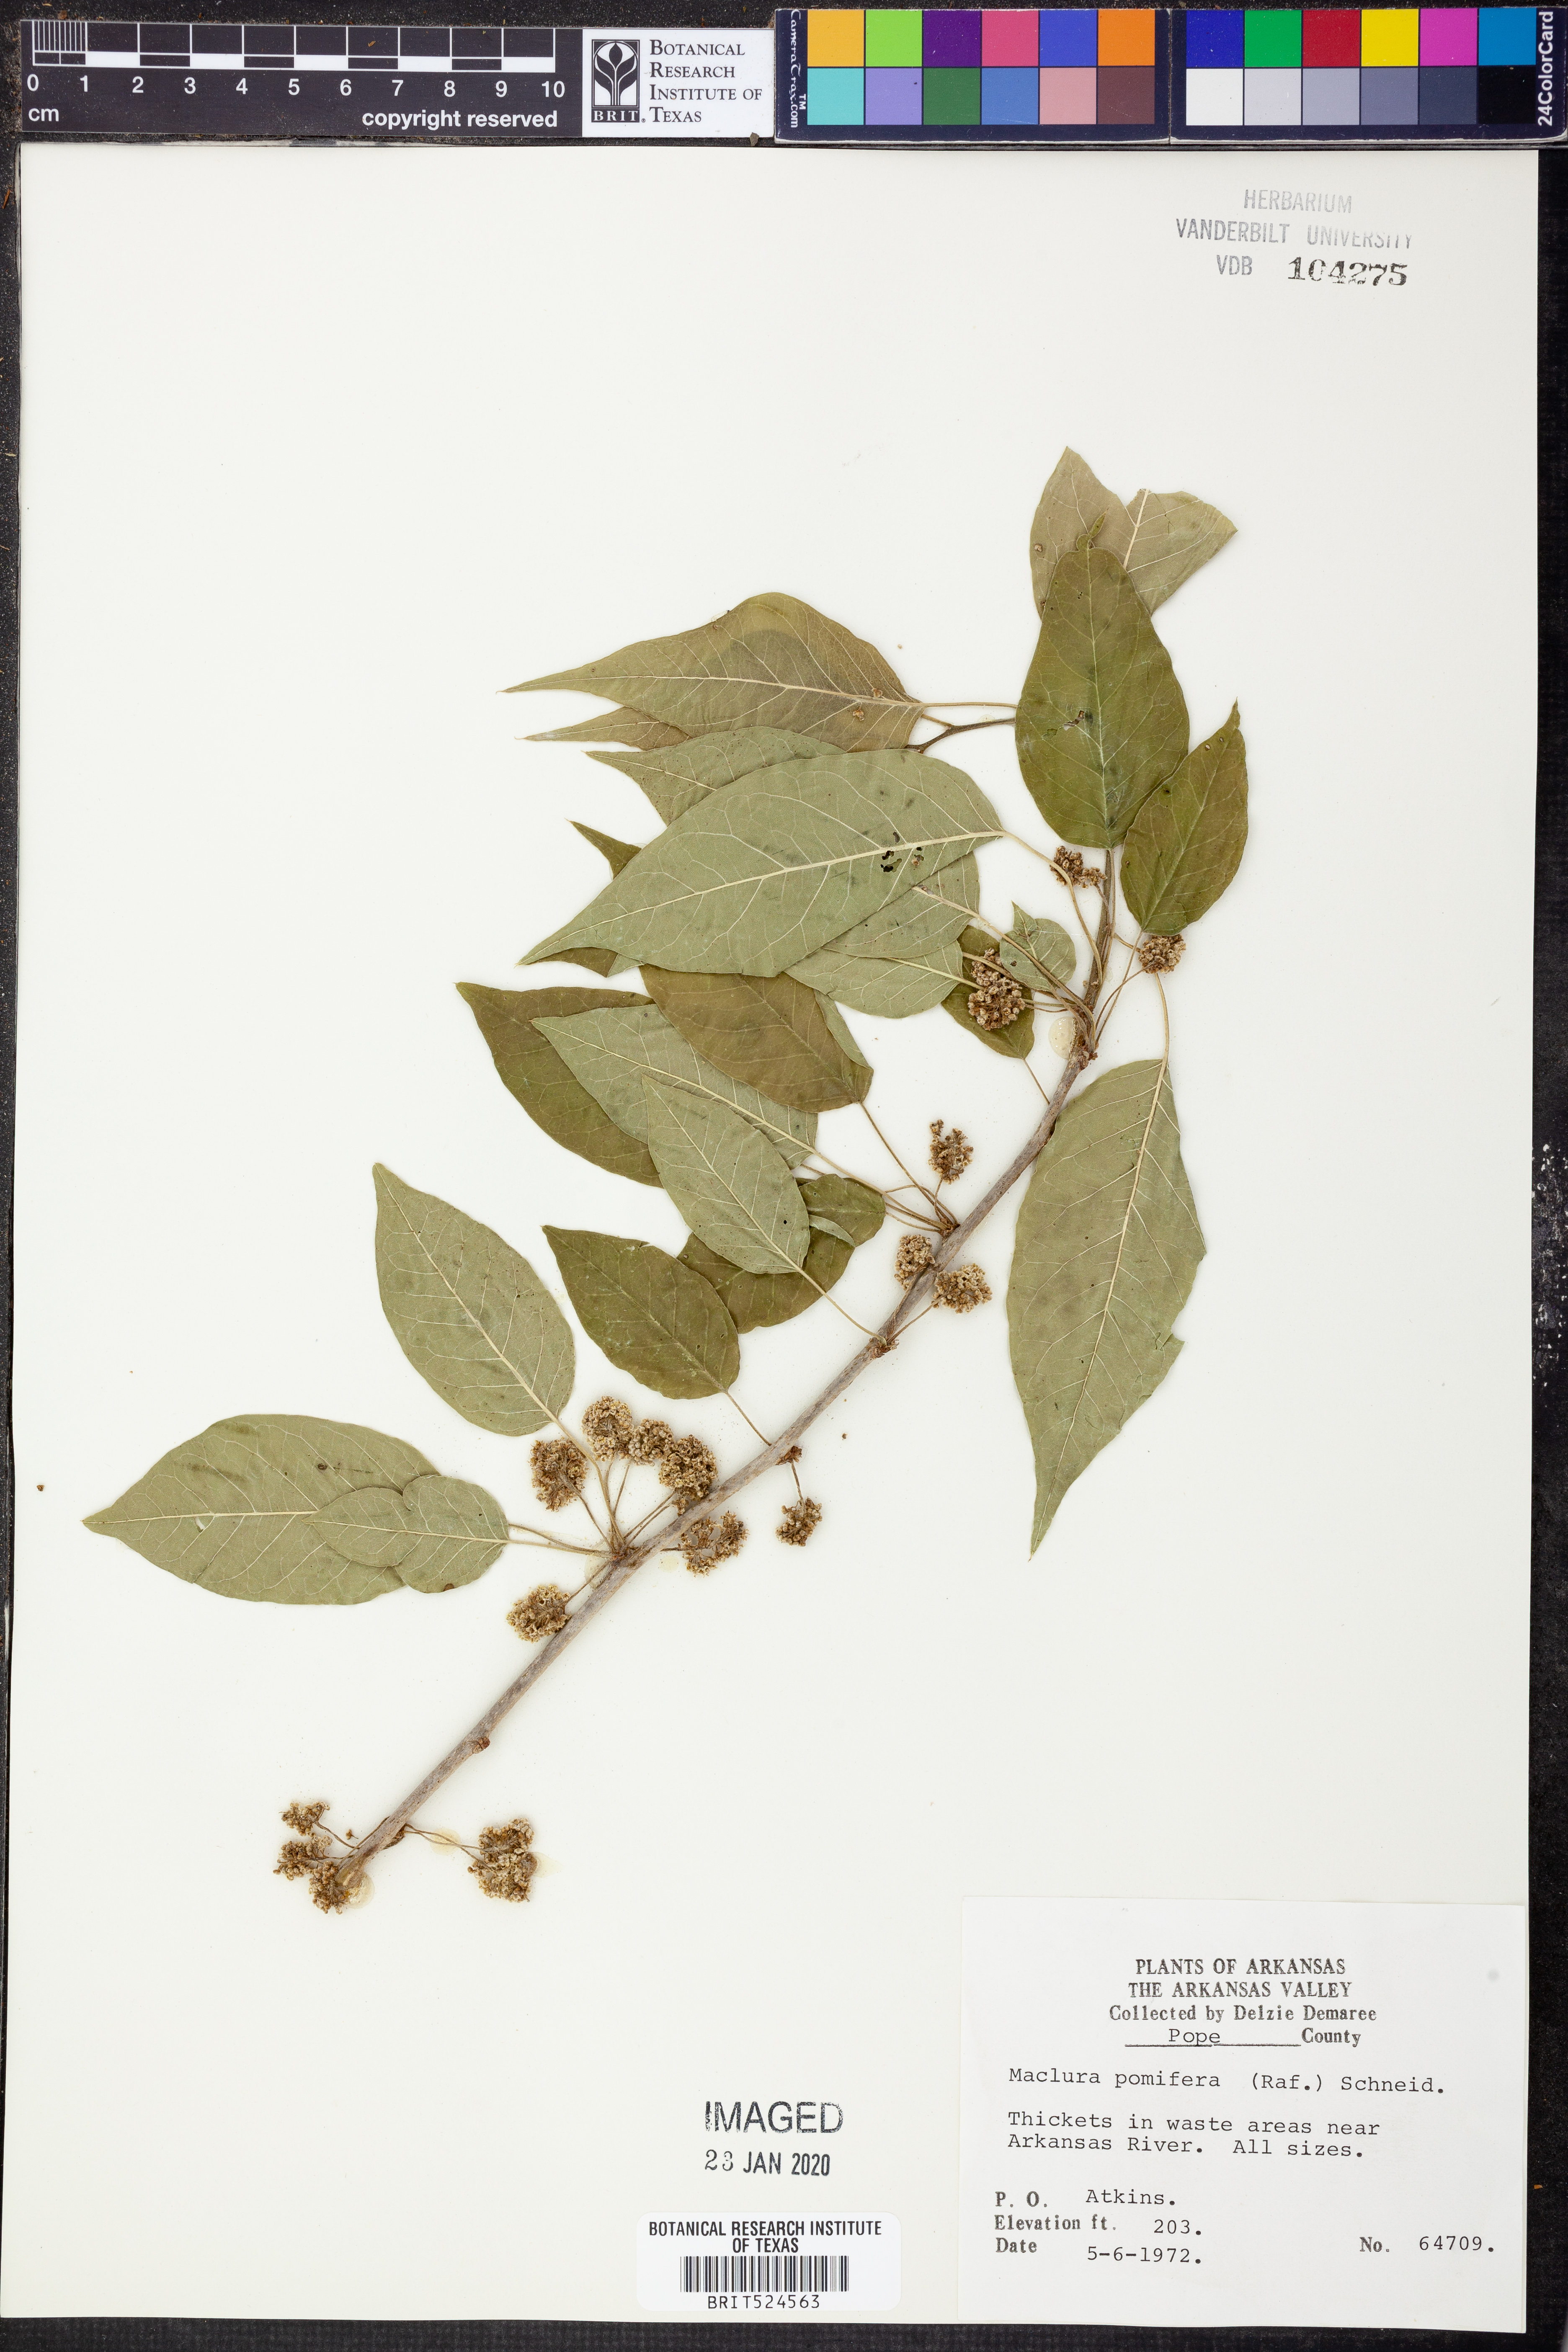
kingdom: Plantae
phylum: Tracheophyta
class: Magnoliopsida
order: Rosales
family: Moraceae
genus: Maclura
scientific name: Maclura pomifera
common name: Osage-orange
